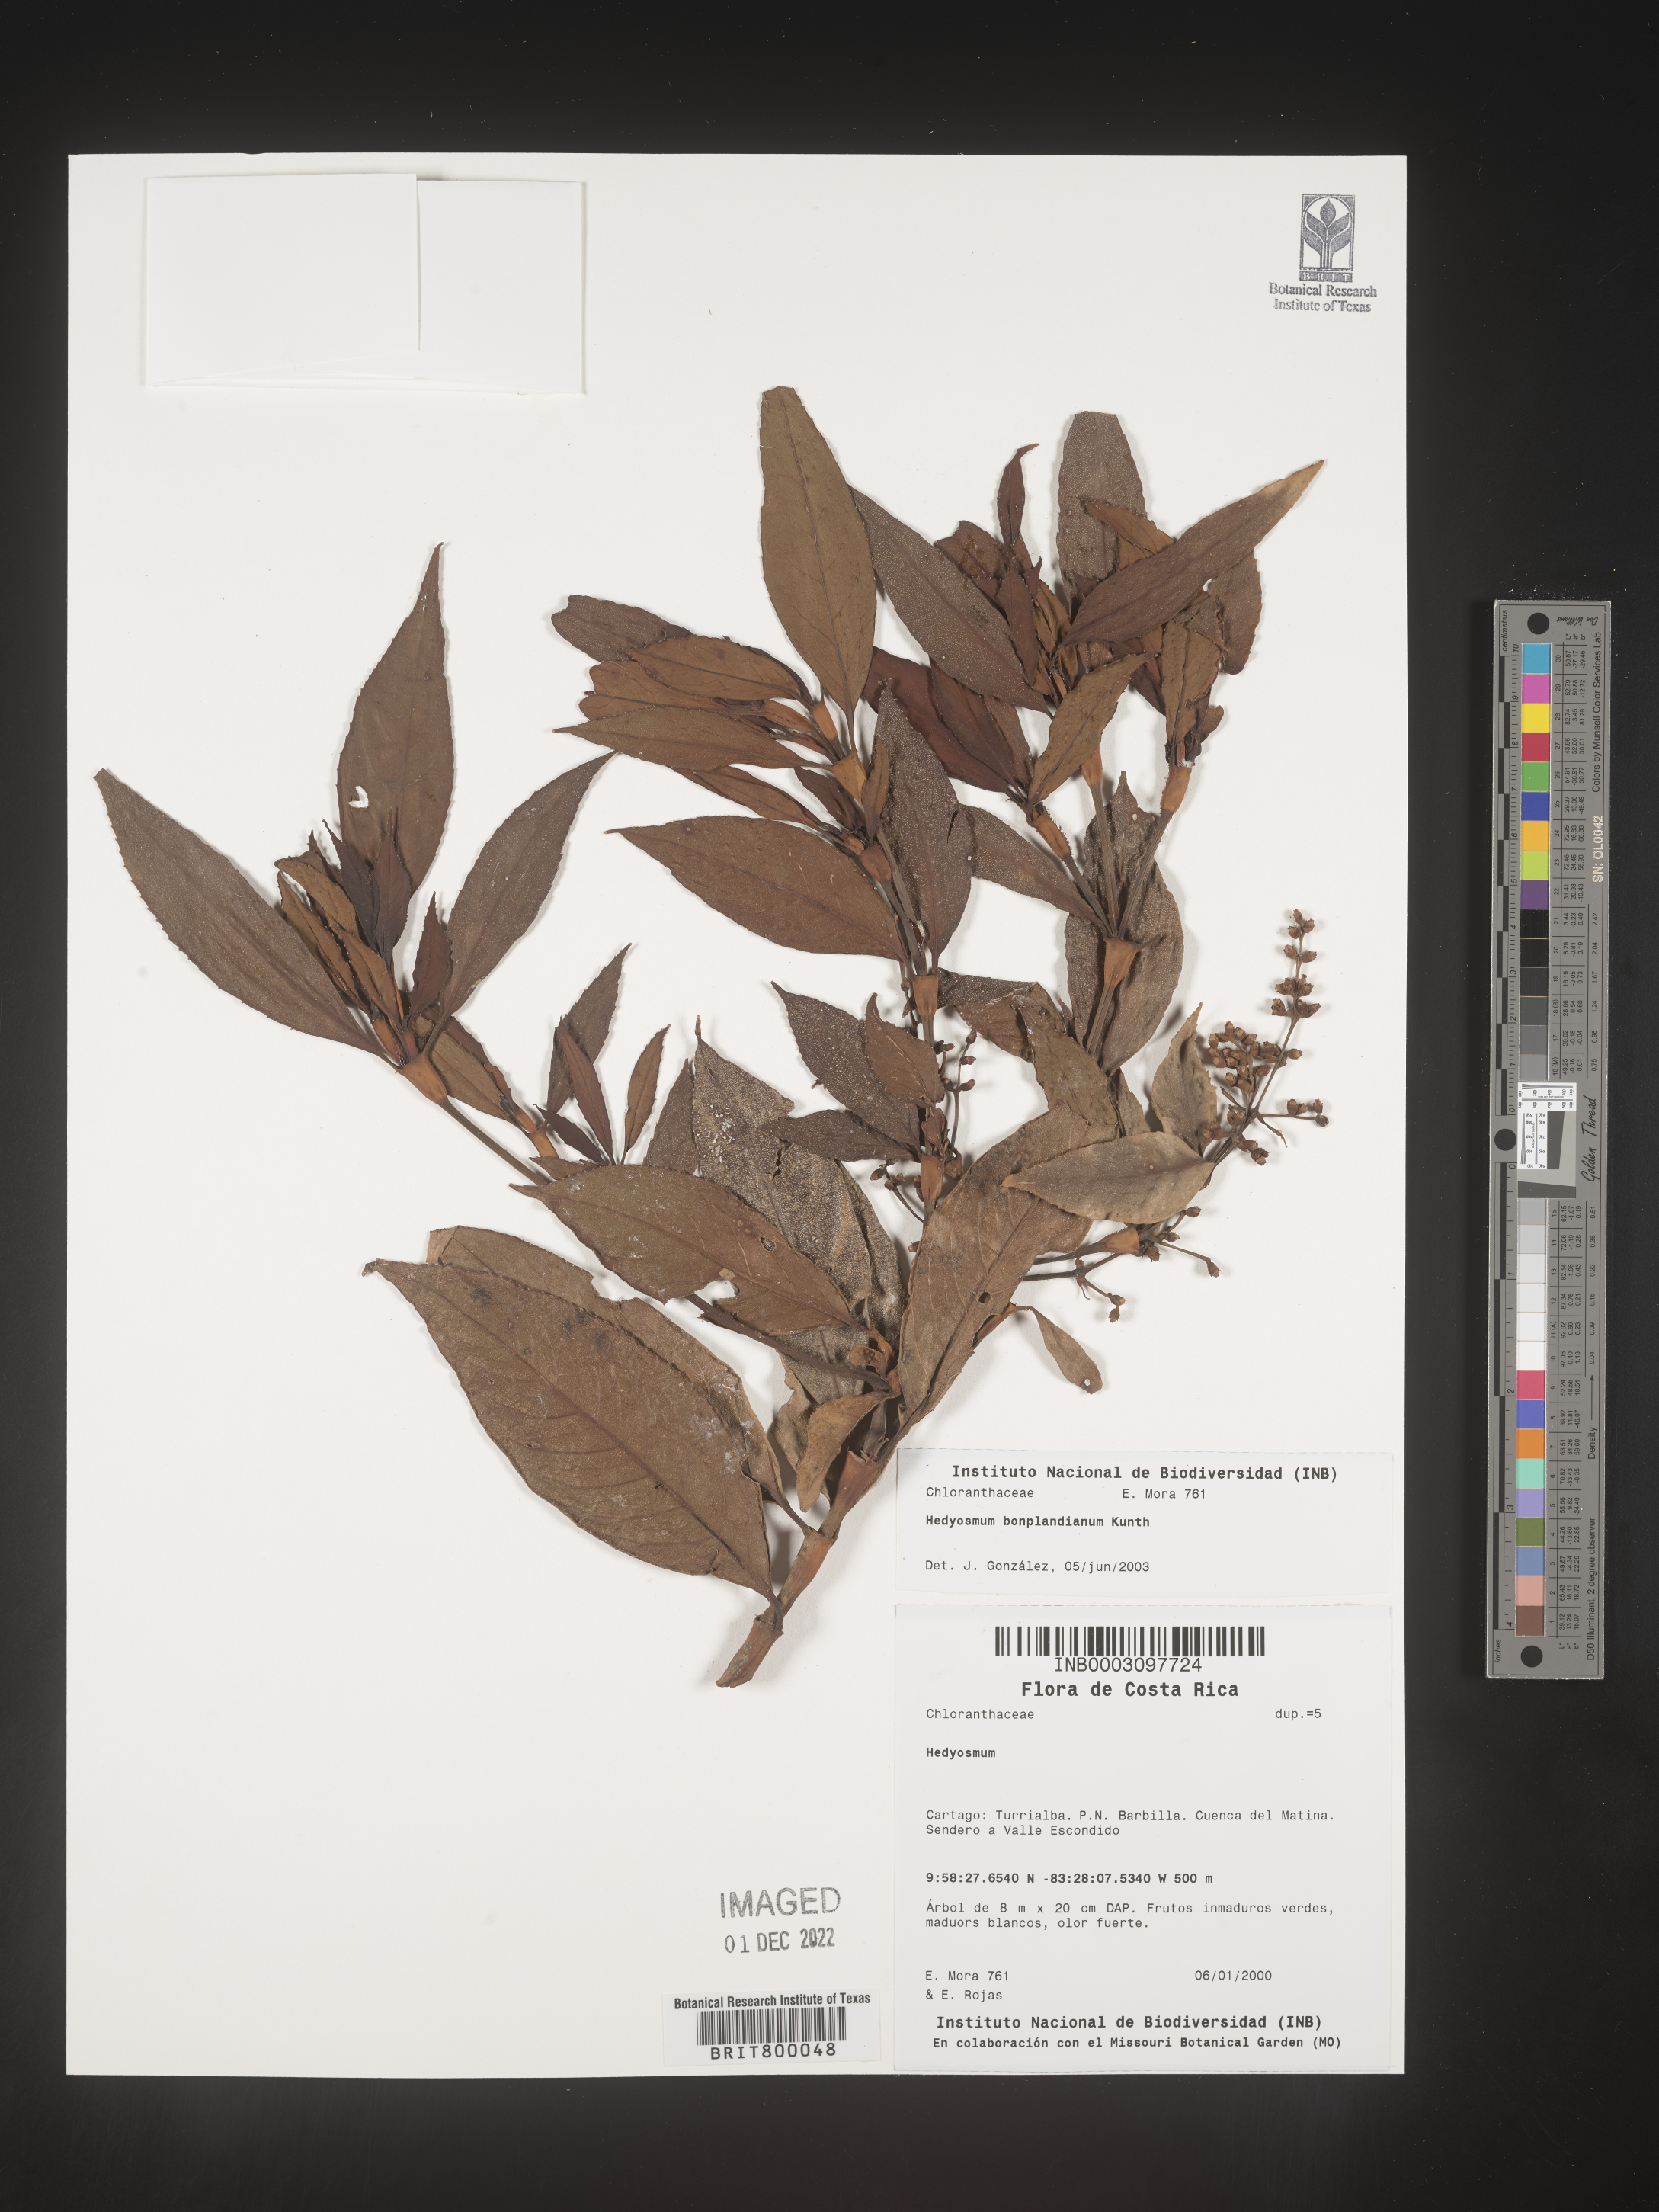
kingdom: Plantae
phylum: Tracheophyta
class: Magnoliopsida
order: Chloranthales
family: Chloranthaceae
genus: Hedyosmum
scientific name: Hedyosmum
